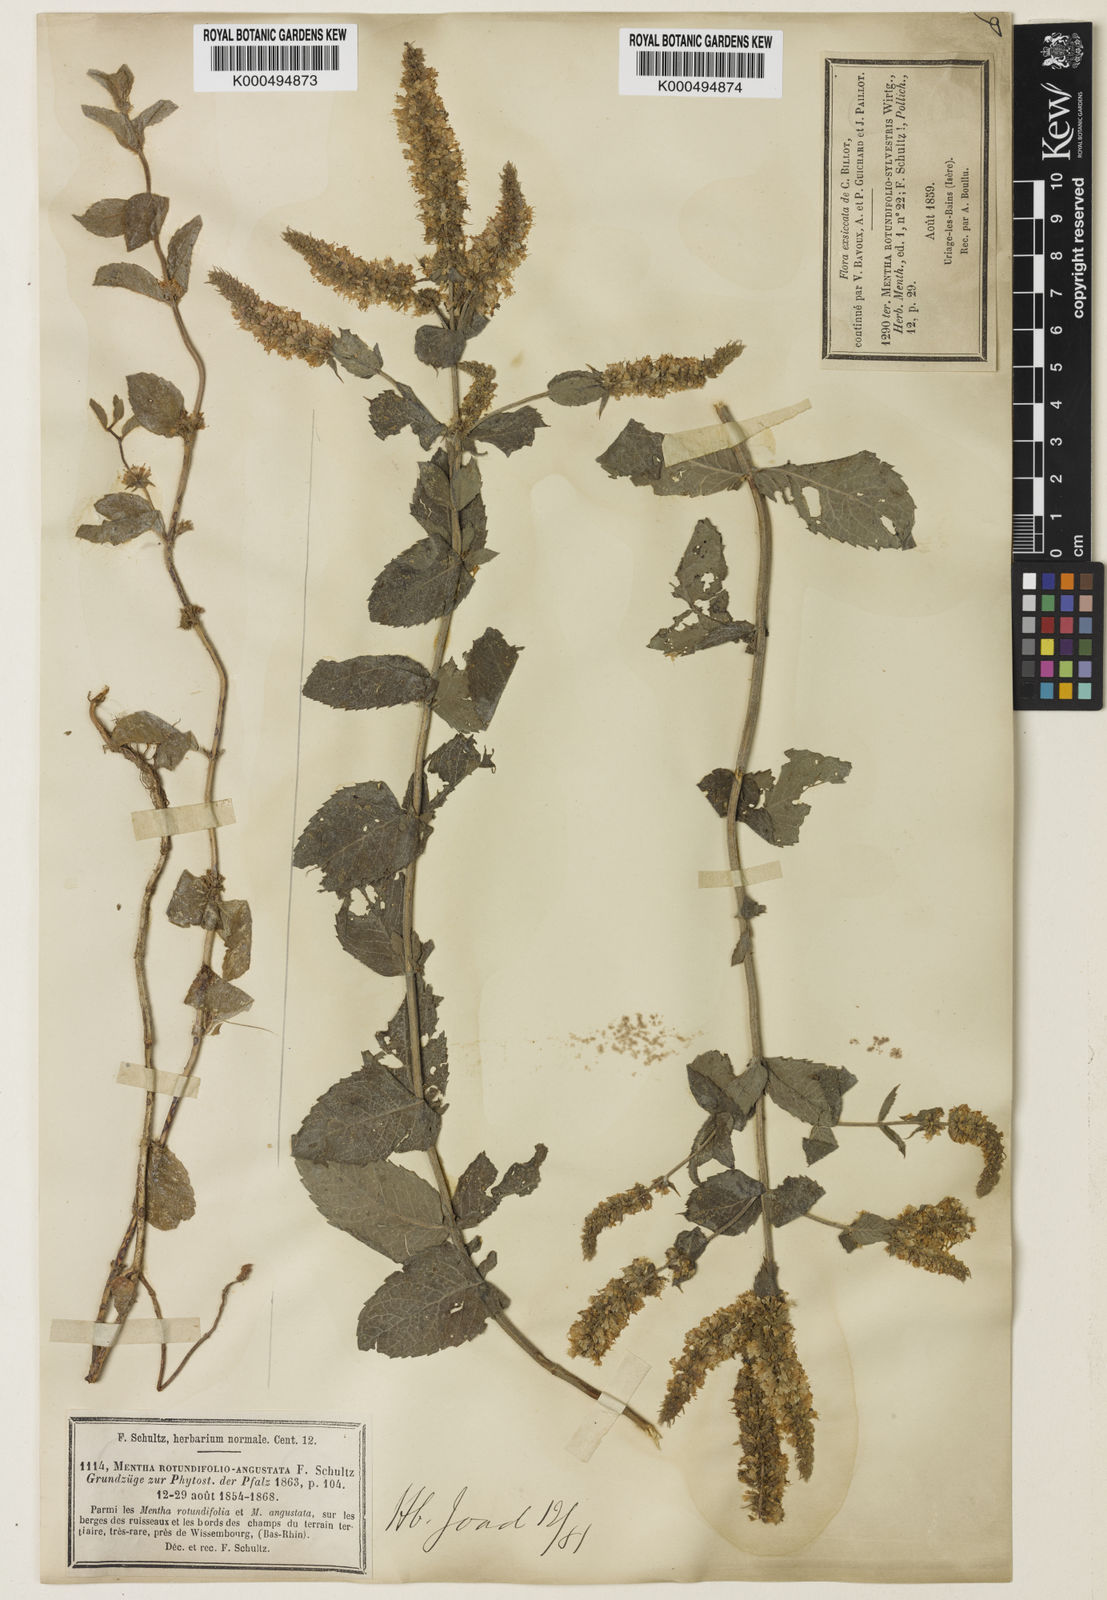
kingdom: Plantae
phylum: Tracheophyta
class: Magnoliopsida
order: Lamiales
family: Lamiaceae
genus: Mentha
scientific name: Mentha rotundifolia
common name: Bigleaf mint
